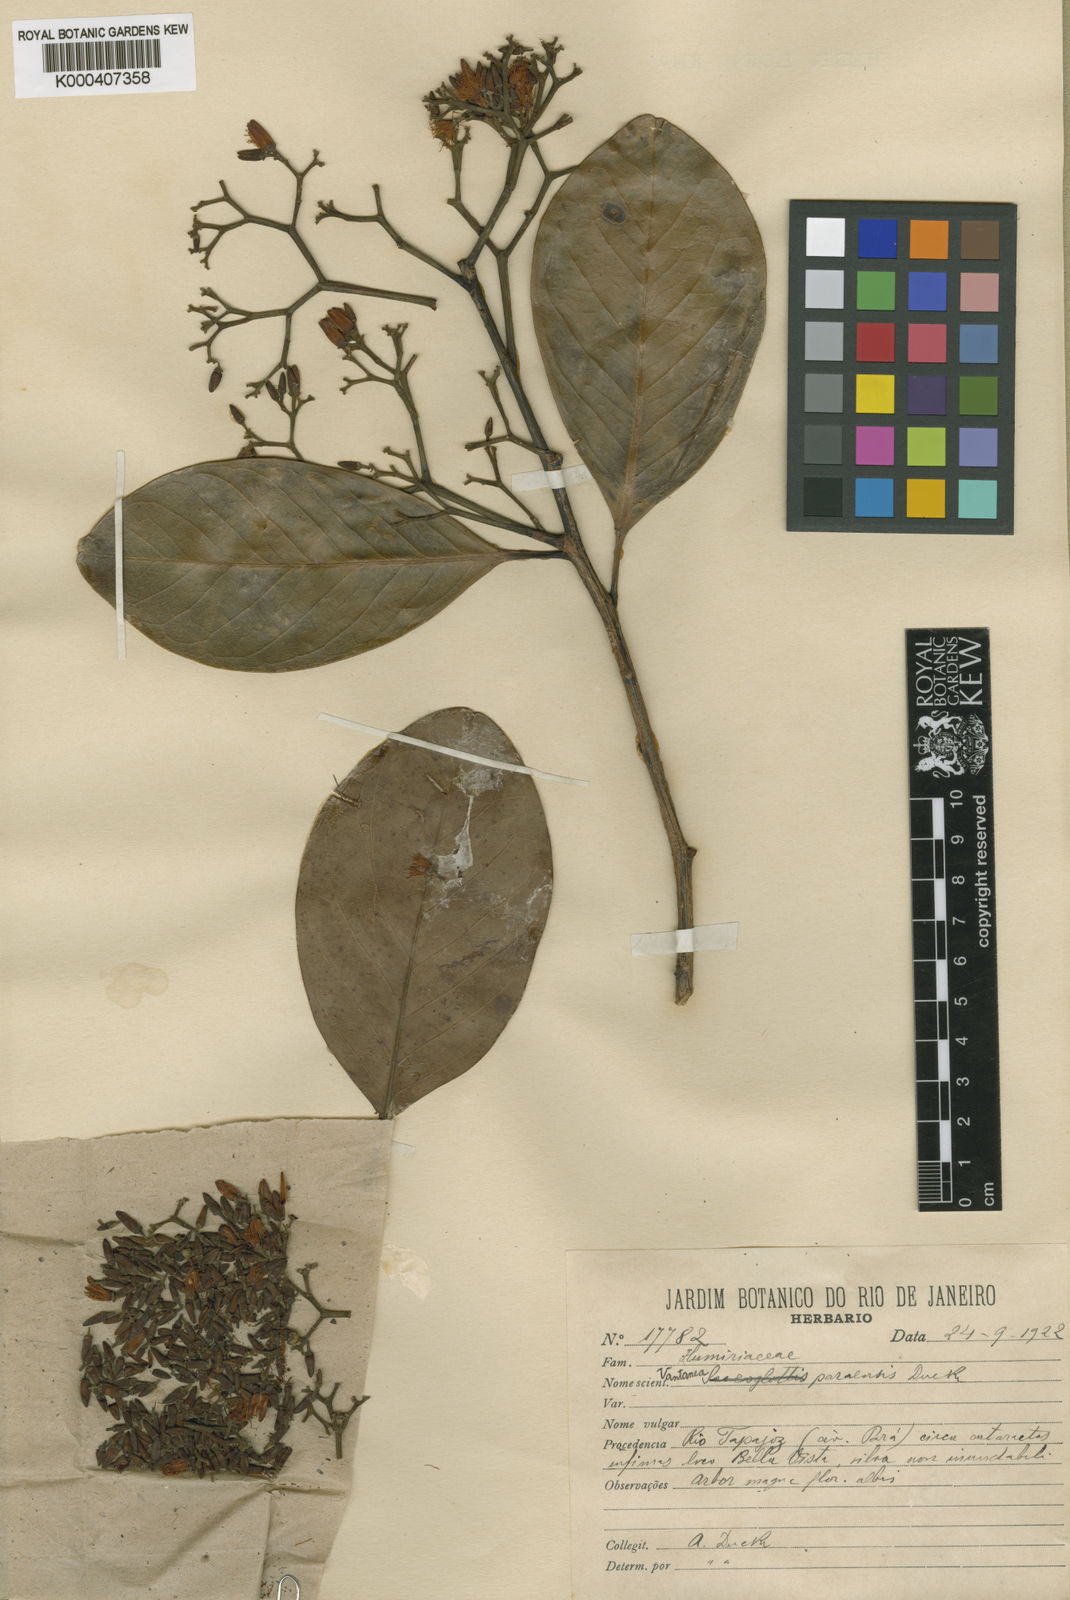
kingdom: Plantae
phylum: Tracheophyta
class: Magnoliopsida
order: Malpighiales
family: Humiriaceae
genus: Vantanea
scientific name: Vantanea paraensis
